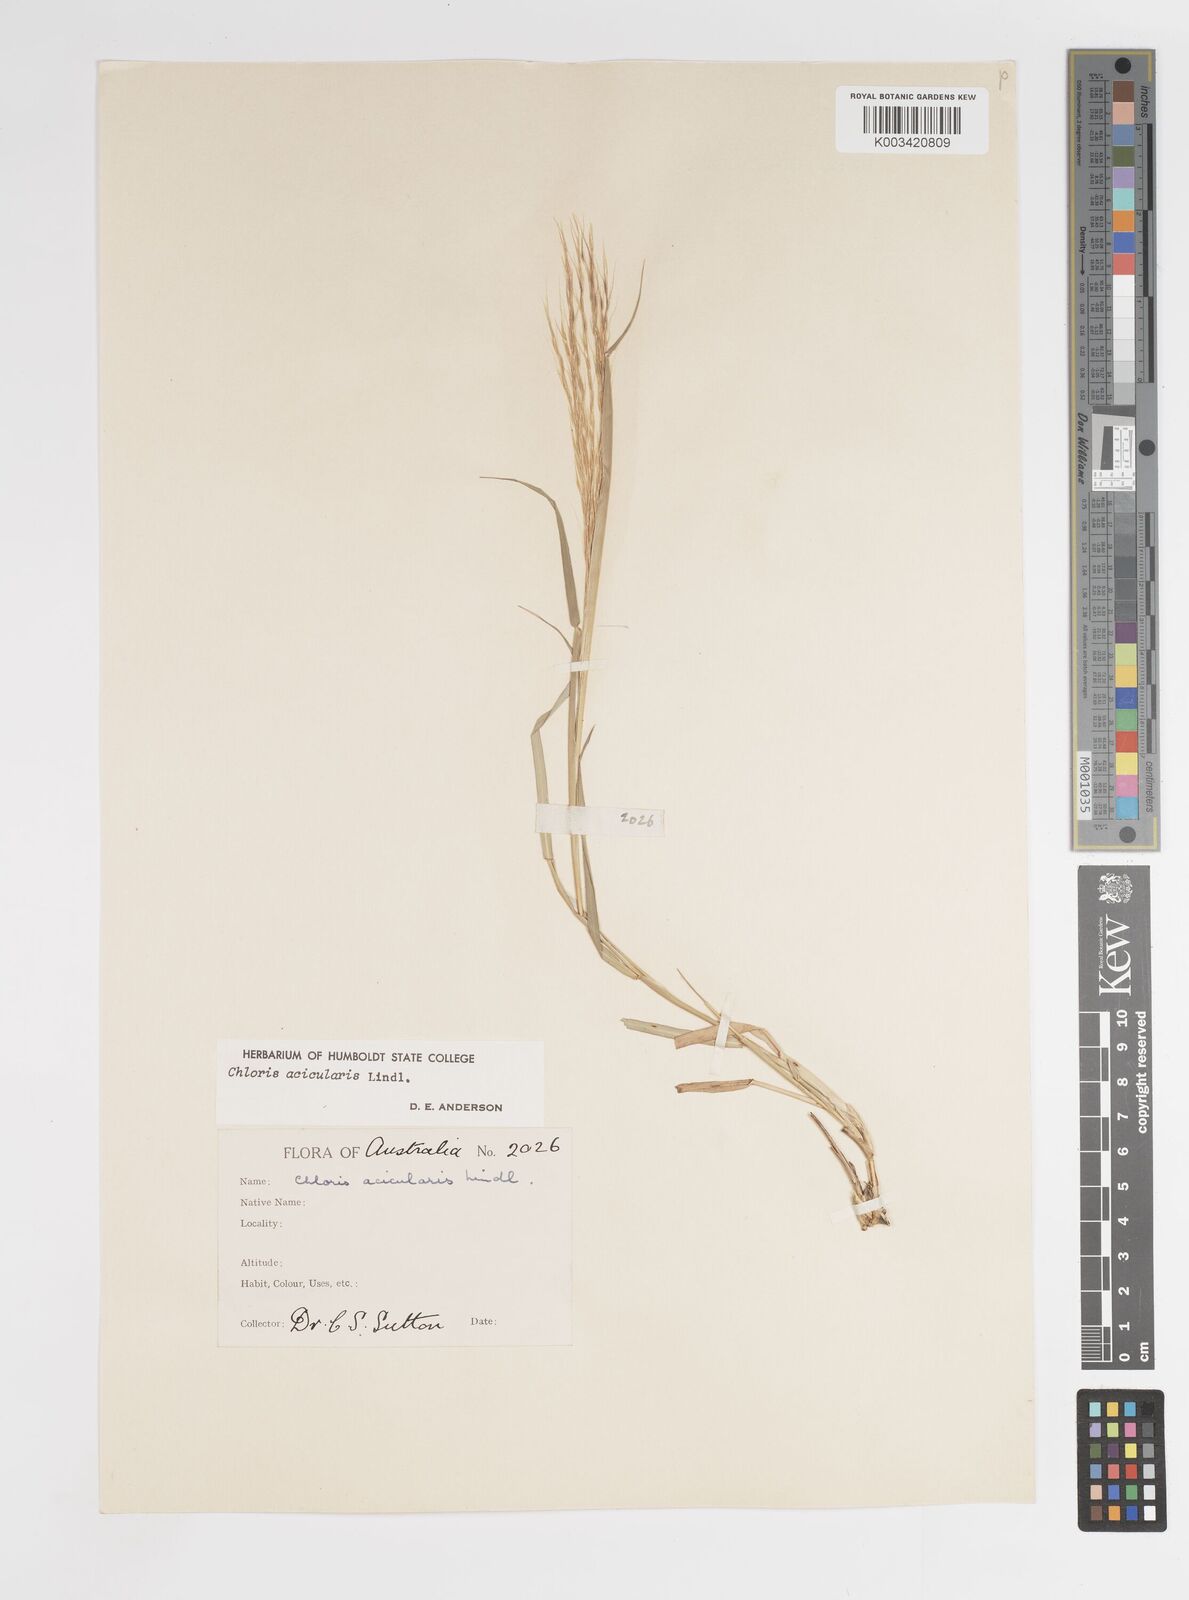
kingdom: Plantae
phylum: Tracheophyta
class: Liliopsida
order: Poales
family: Poaceae
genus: Enteropogon
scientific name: Enteropogon acicularis
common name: Curly windmill grass
